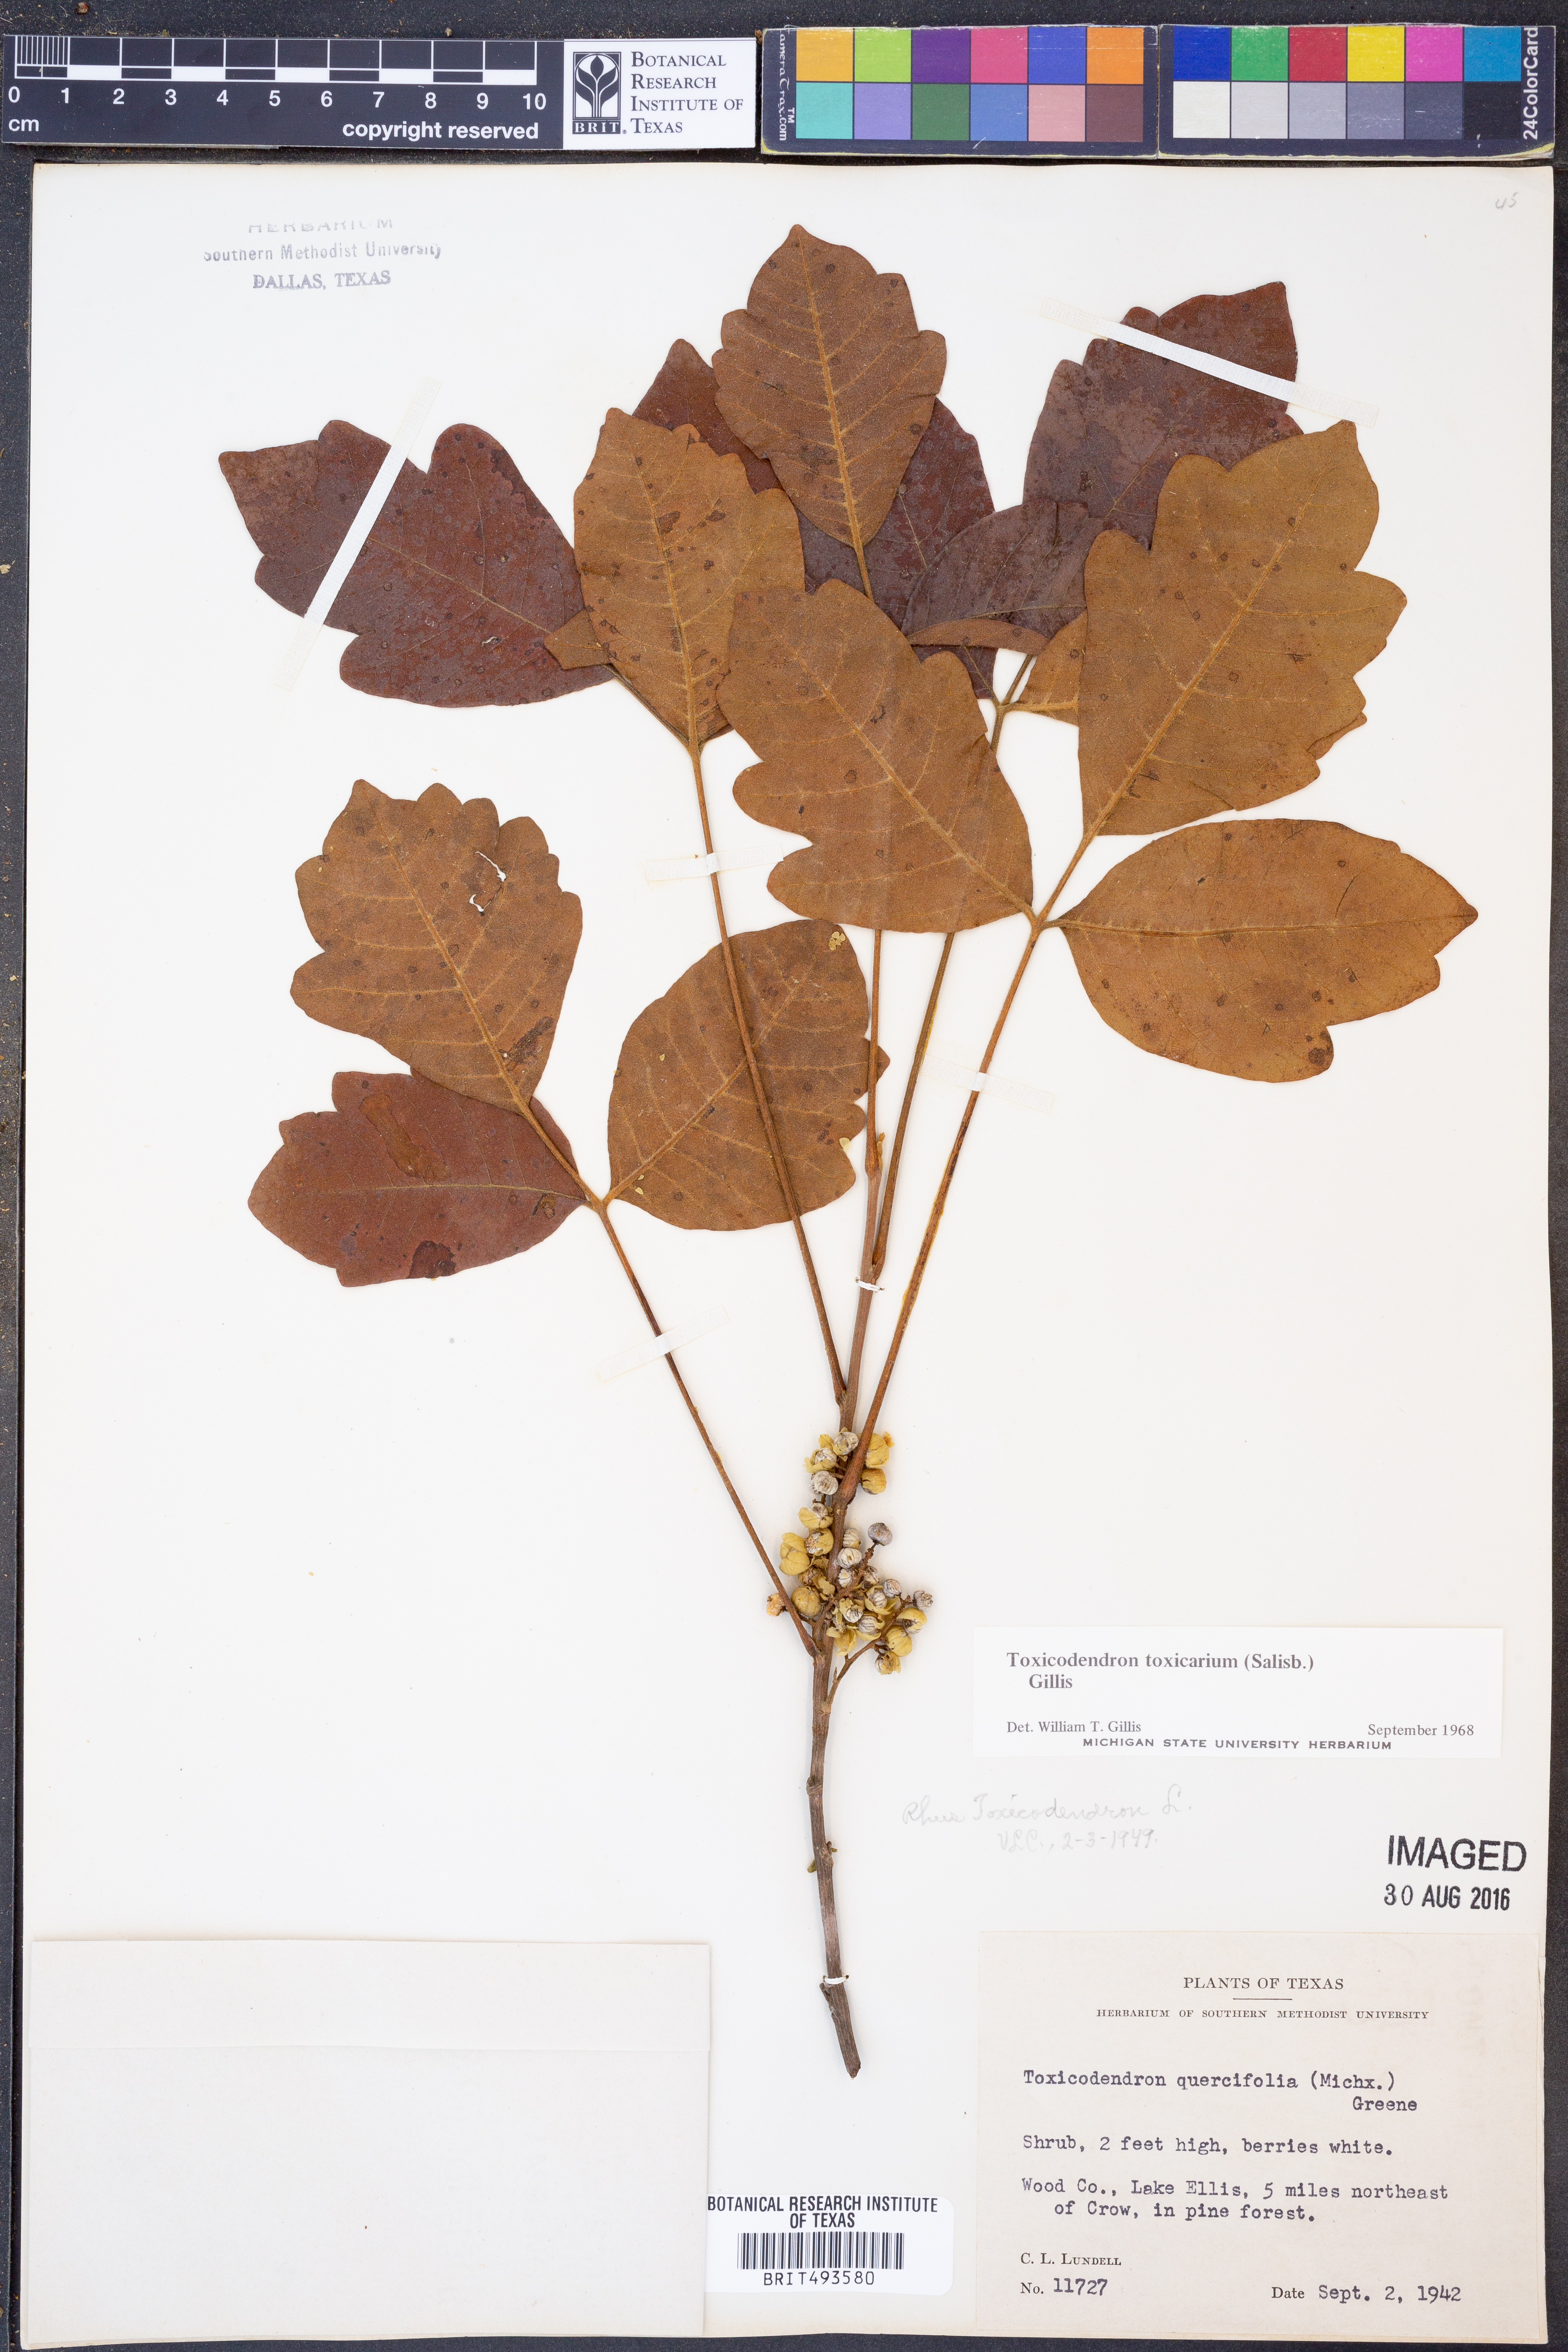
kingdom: Plantae
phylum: Tracheophyta
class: Magnoliopsida
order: Sapindales
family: Anacardiaceae
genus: Toxicodendron
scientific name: Toxicodendron pubescens
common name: Eastern poison-oak
